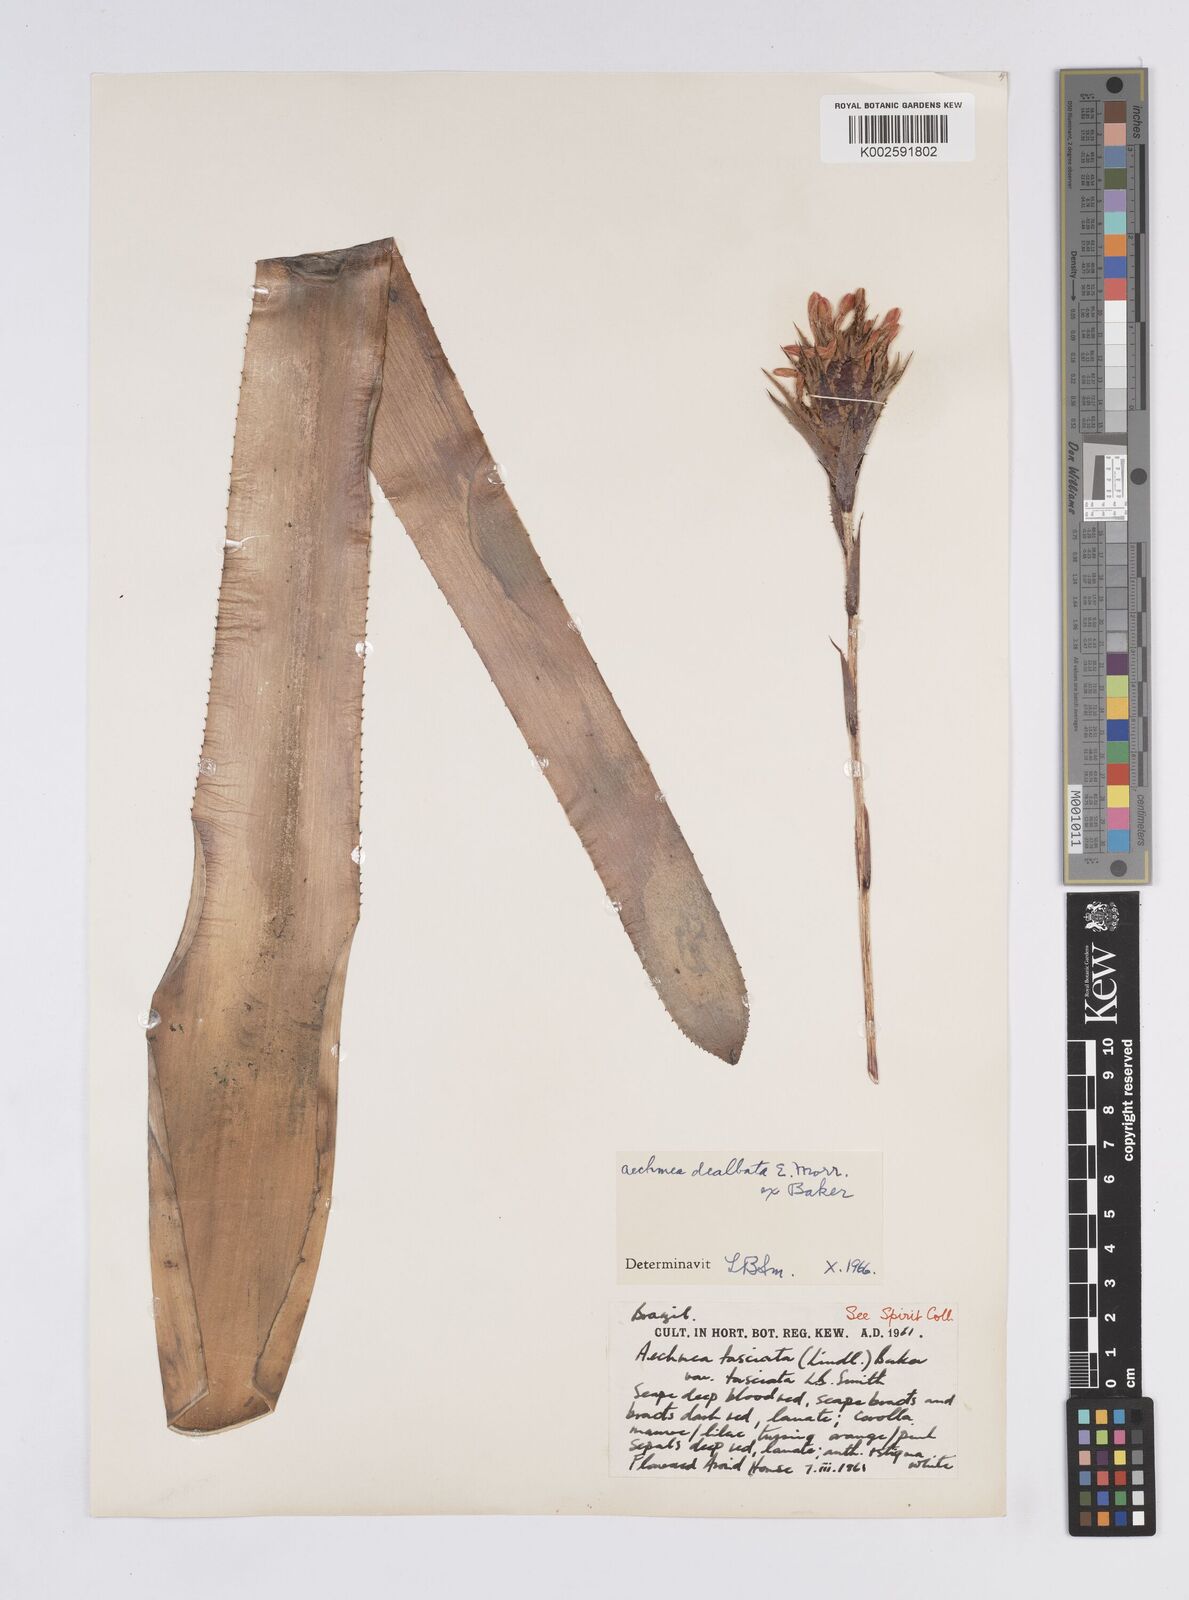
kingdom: Plantae
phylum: Tracheophyta
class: Liliopsida
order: Poales
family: Bromeliaceae
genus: Aechmea
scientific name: Aechmea dealbata
